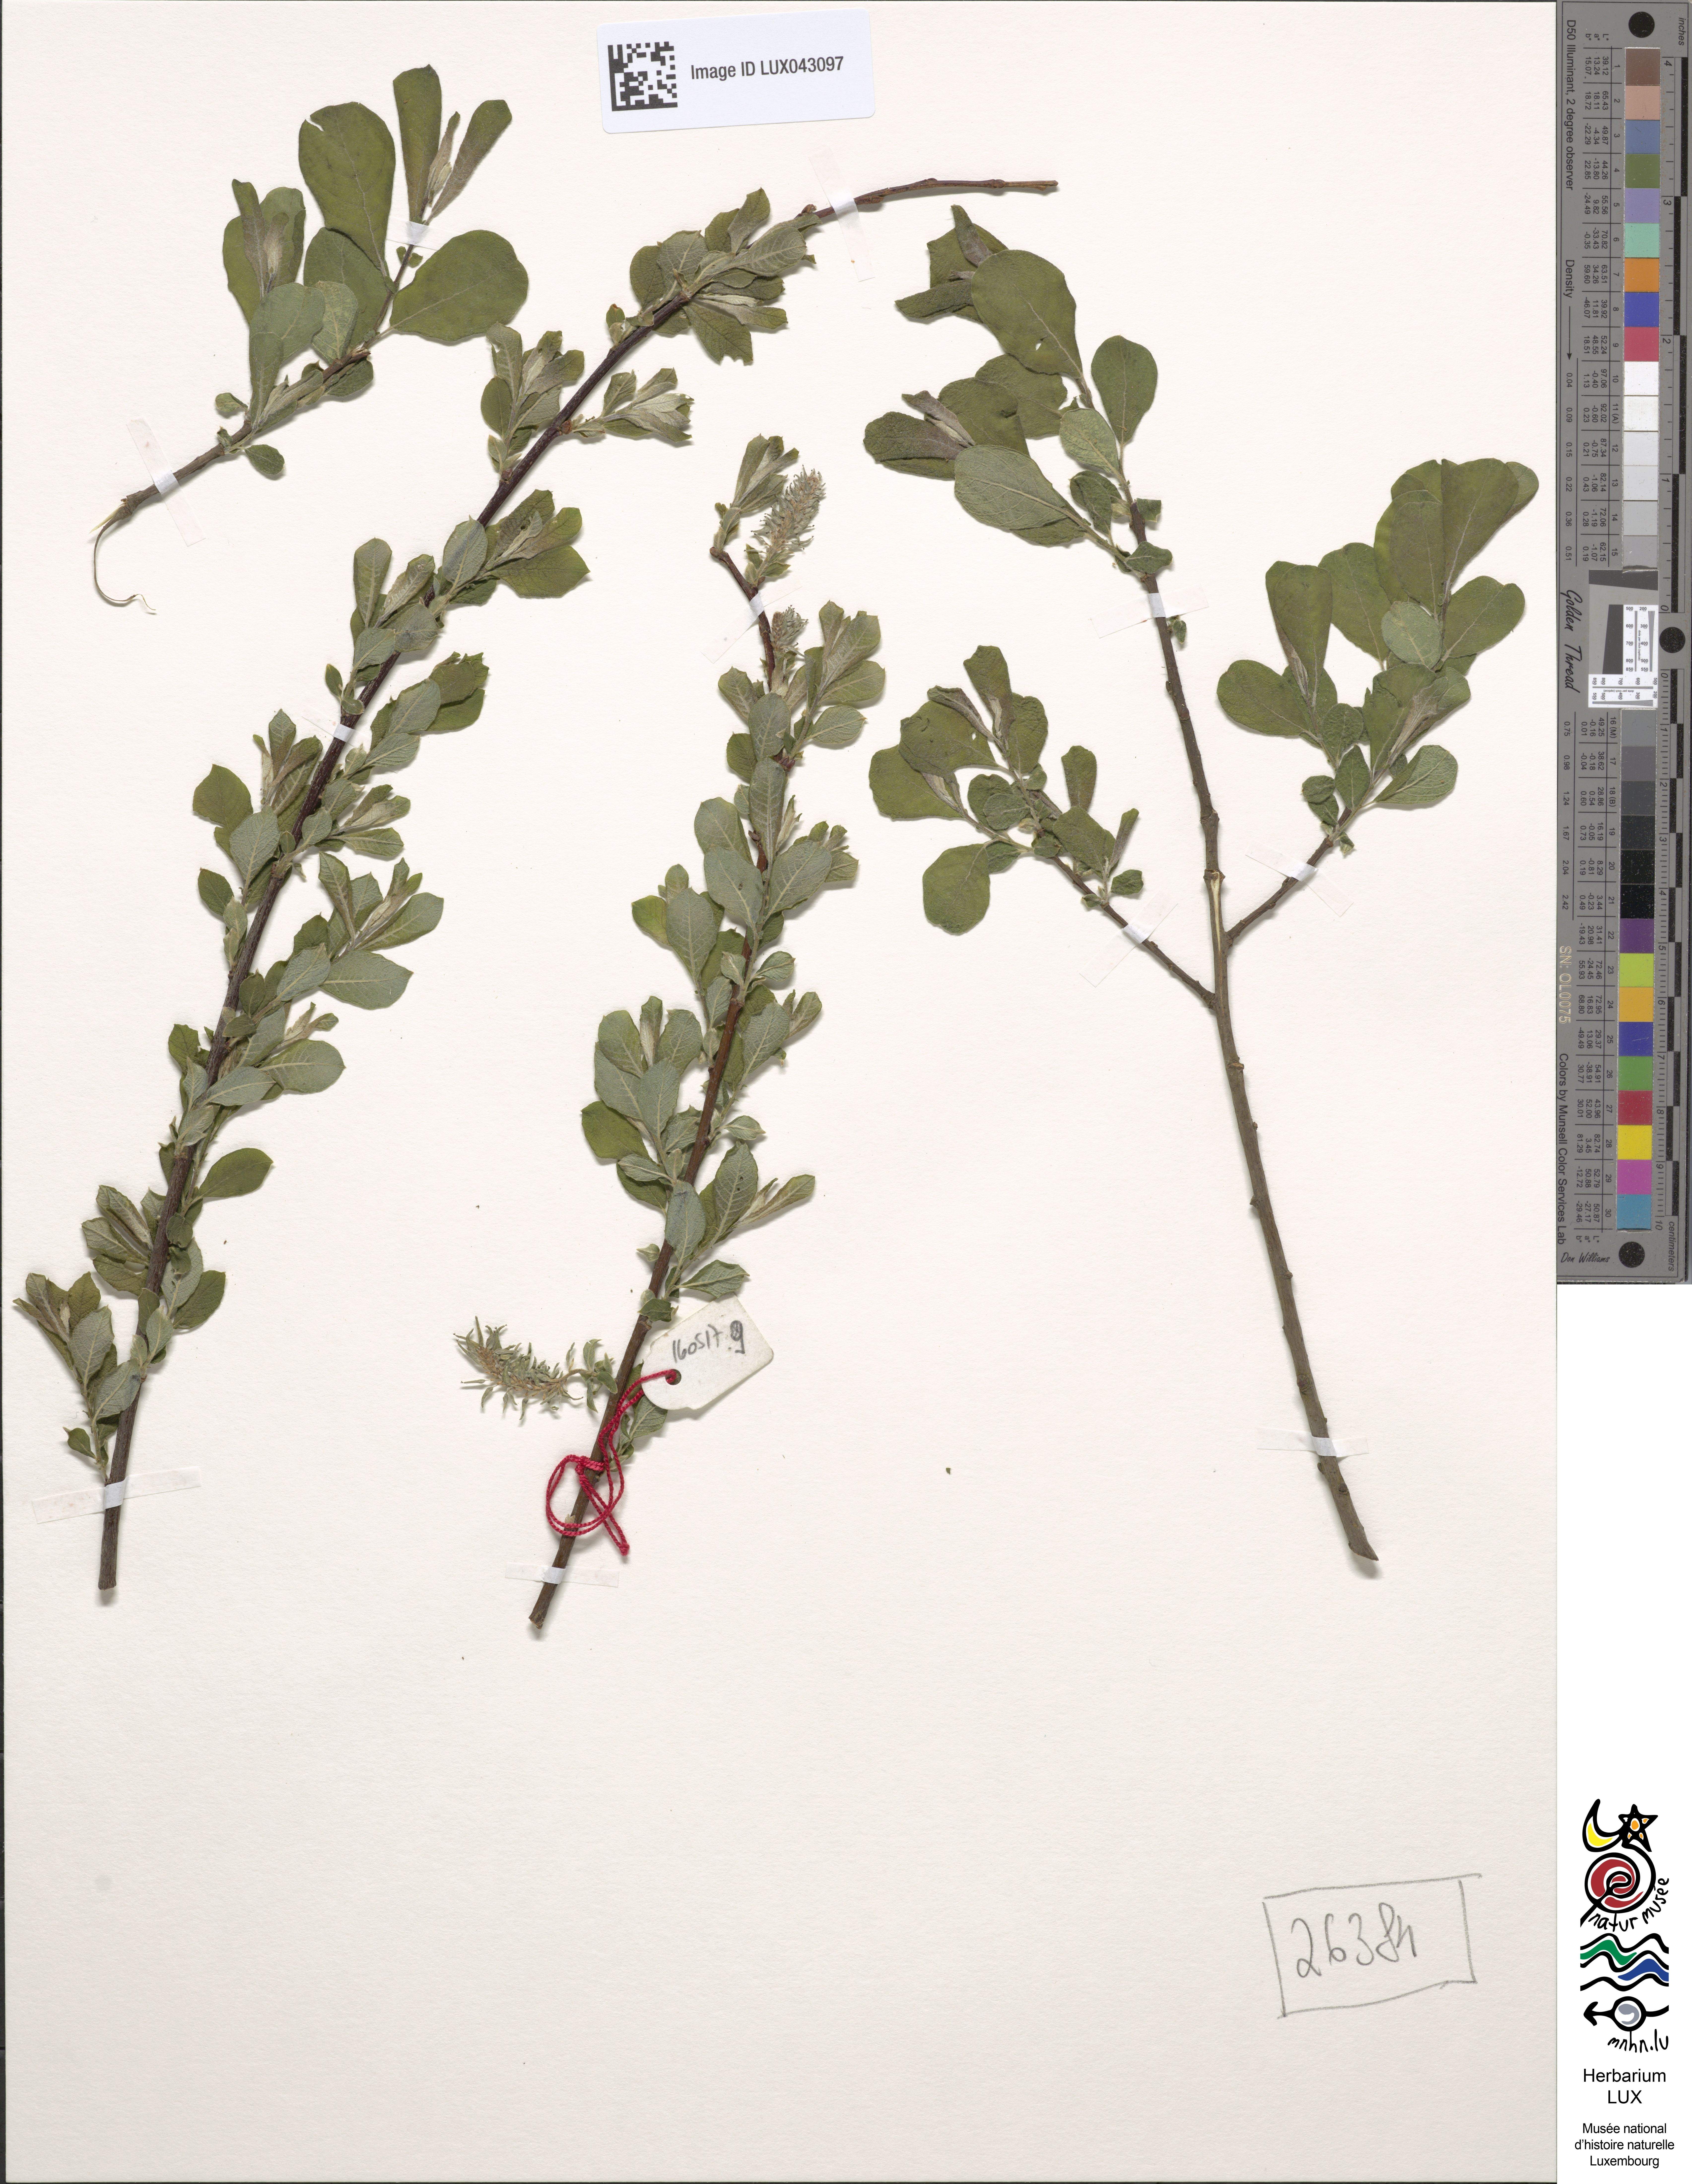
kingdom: Plantae
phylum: Tracheophyta
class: Magnoliopsida
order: Malpighiales
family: Salicaceae
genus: Salix
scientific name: Salix aurita
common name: Eared willow
